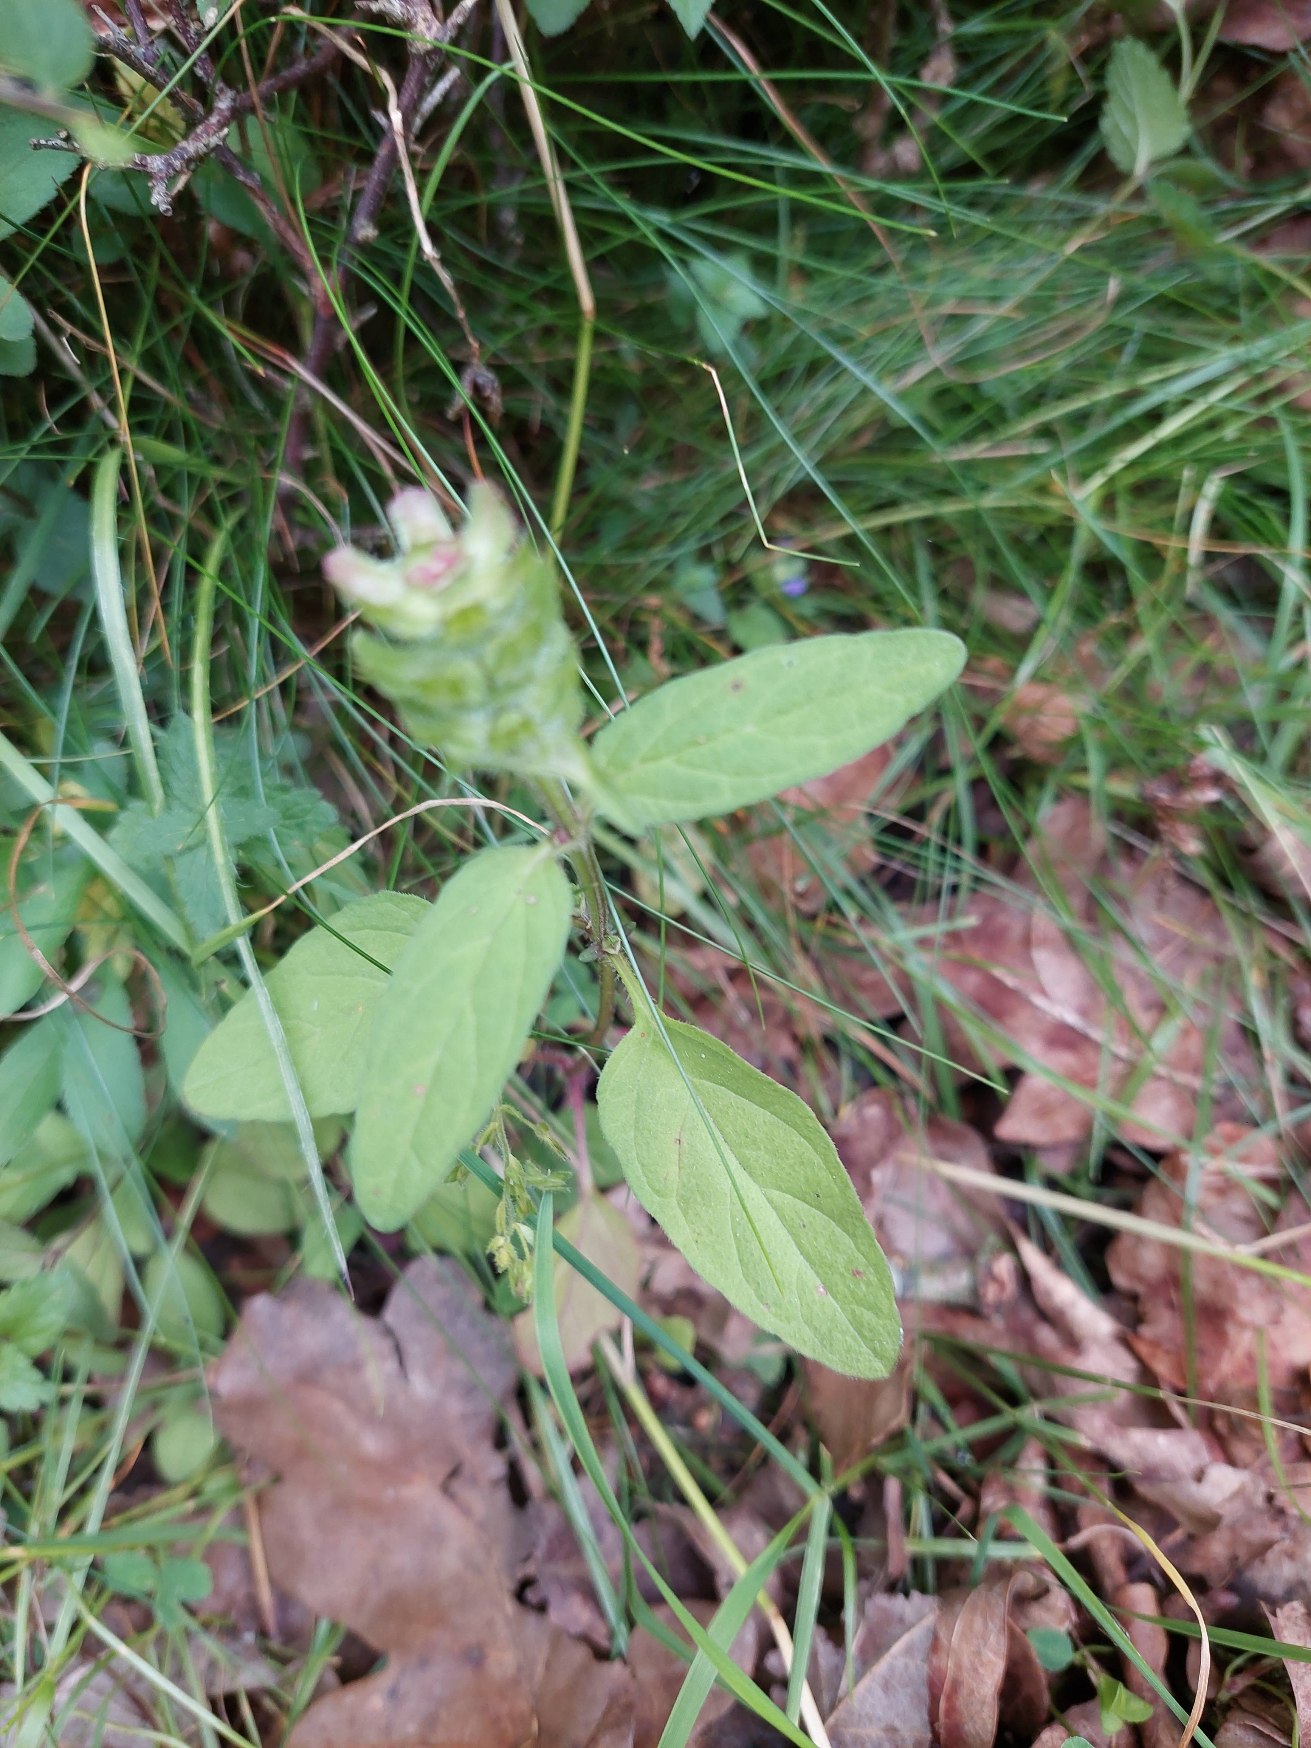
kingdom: Plantae
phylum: Tracheophyta
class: Magnoliopsida
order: Lamiales
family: Lamiaceae
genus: Prunella
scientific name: Prunella vulgaris
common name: Almindelig brunelle
